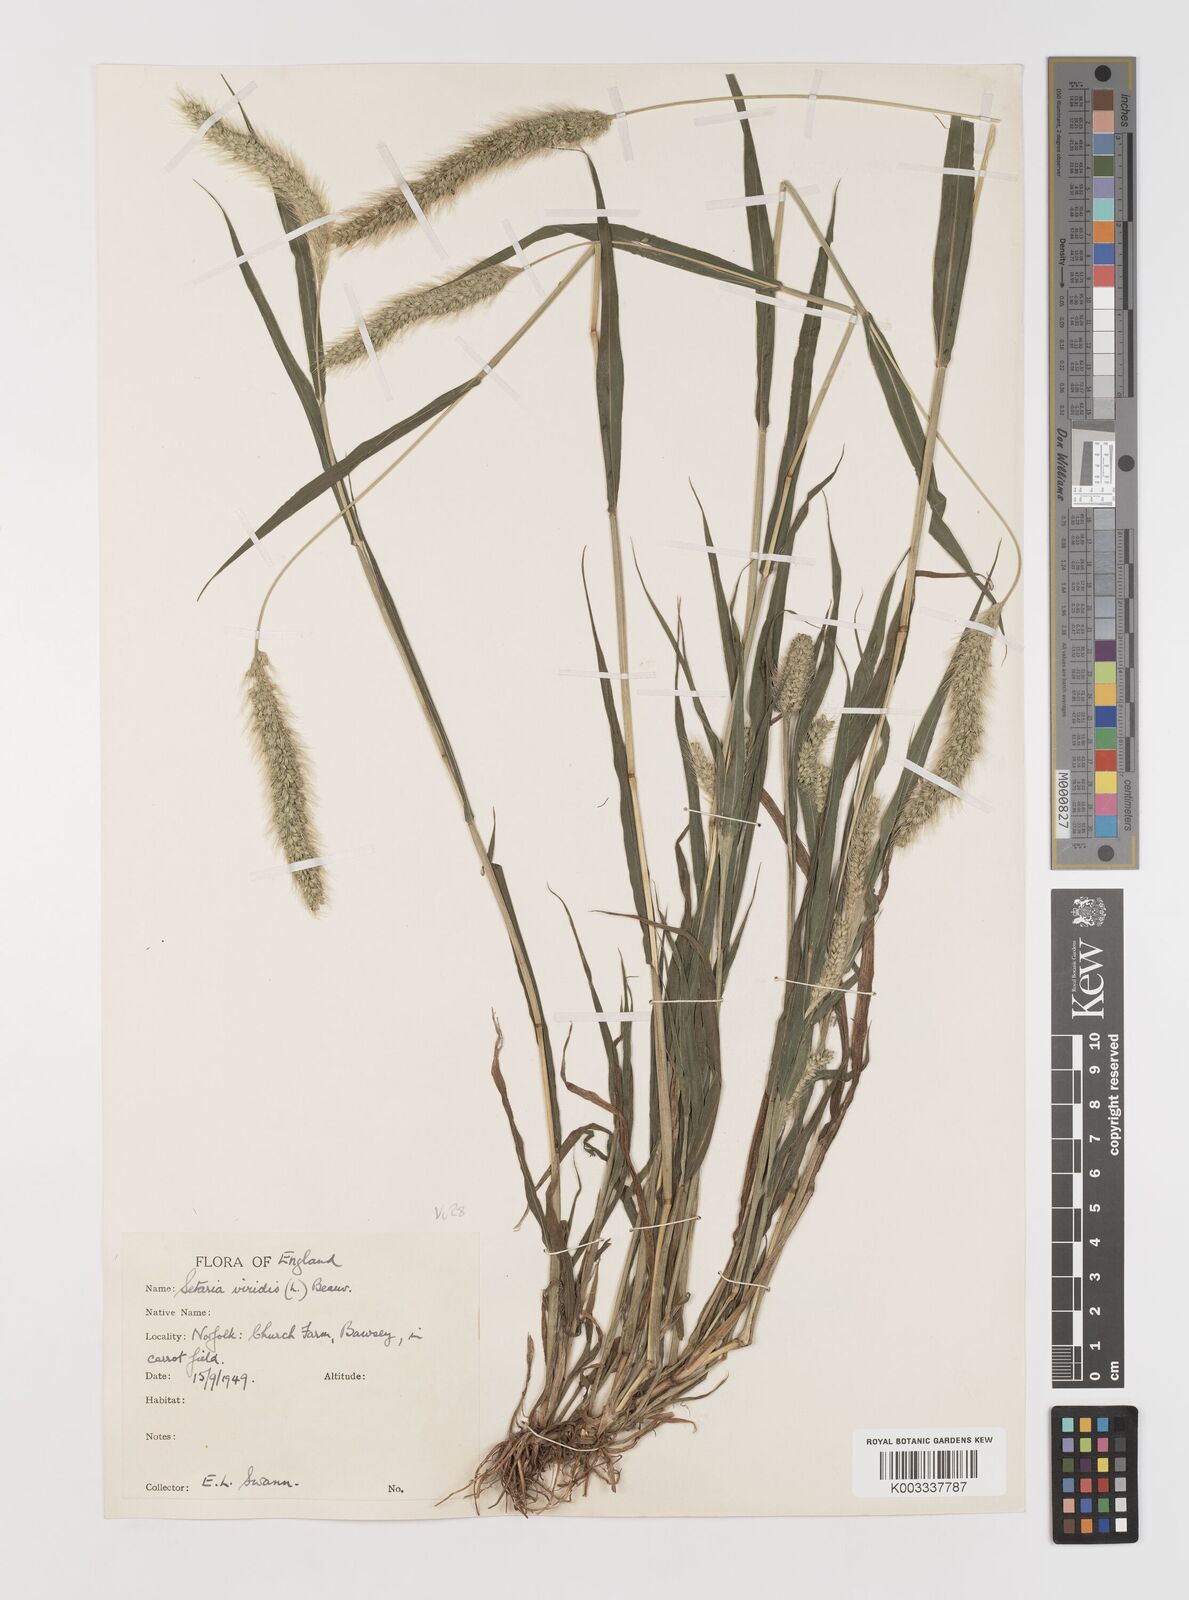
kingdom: Plantae
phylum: Tracheophyta
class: Liliopsida
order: Poales
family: Poaceae
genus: Setaria
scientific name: Setaria viridis
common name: Green bristlegrass
